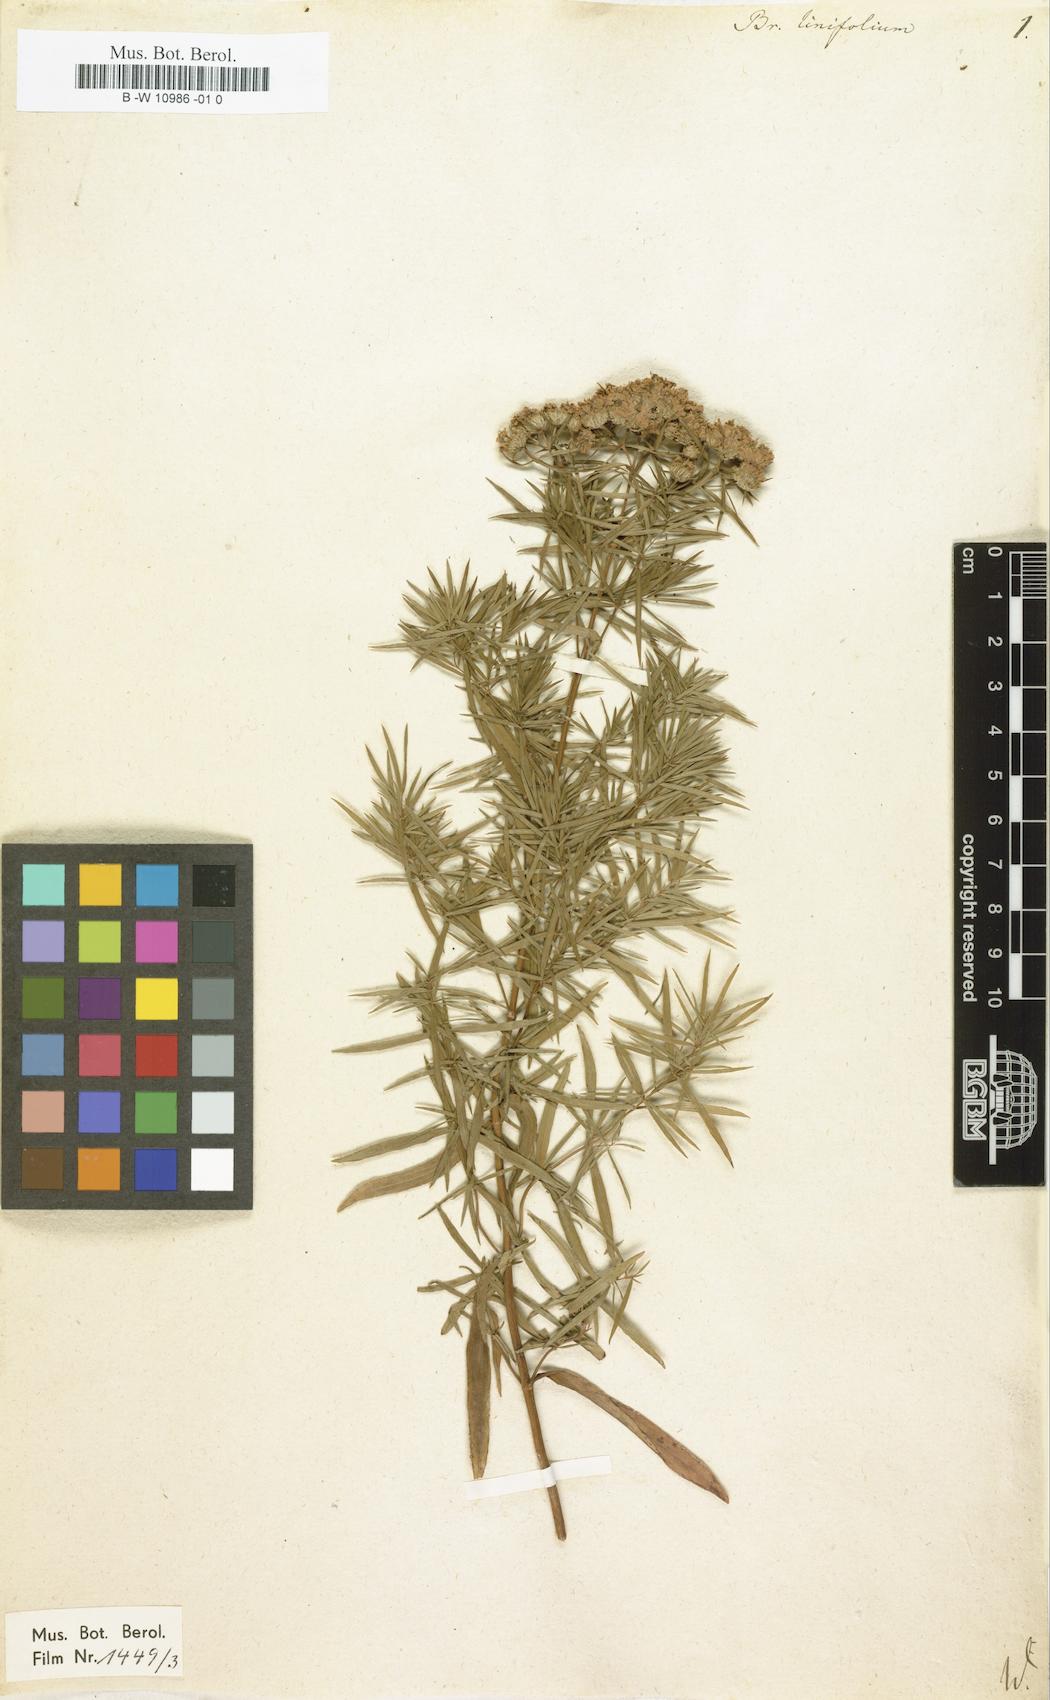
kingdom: Plantae
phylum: Tracheophyta
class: Magnoliopsida
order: Lamiales
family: Lamiaceae
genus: Pycnanthemum
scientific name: Pycnanthemum flexuosum
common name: Appalachian mountain-mint
